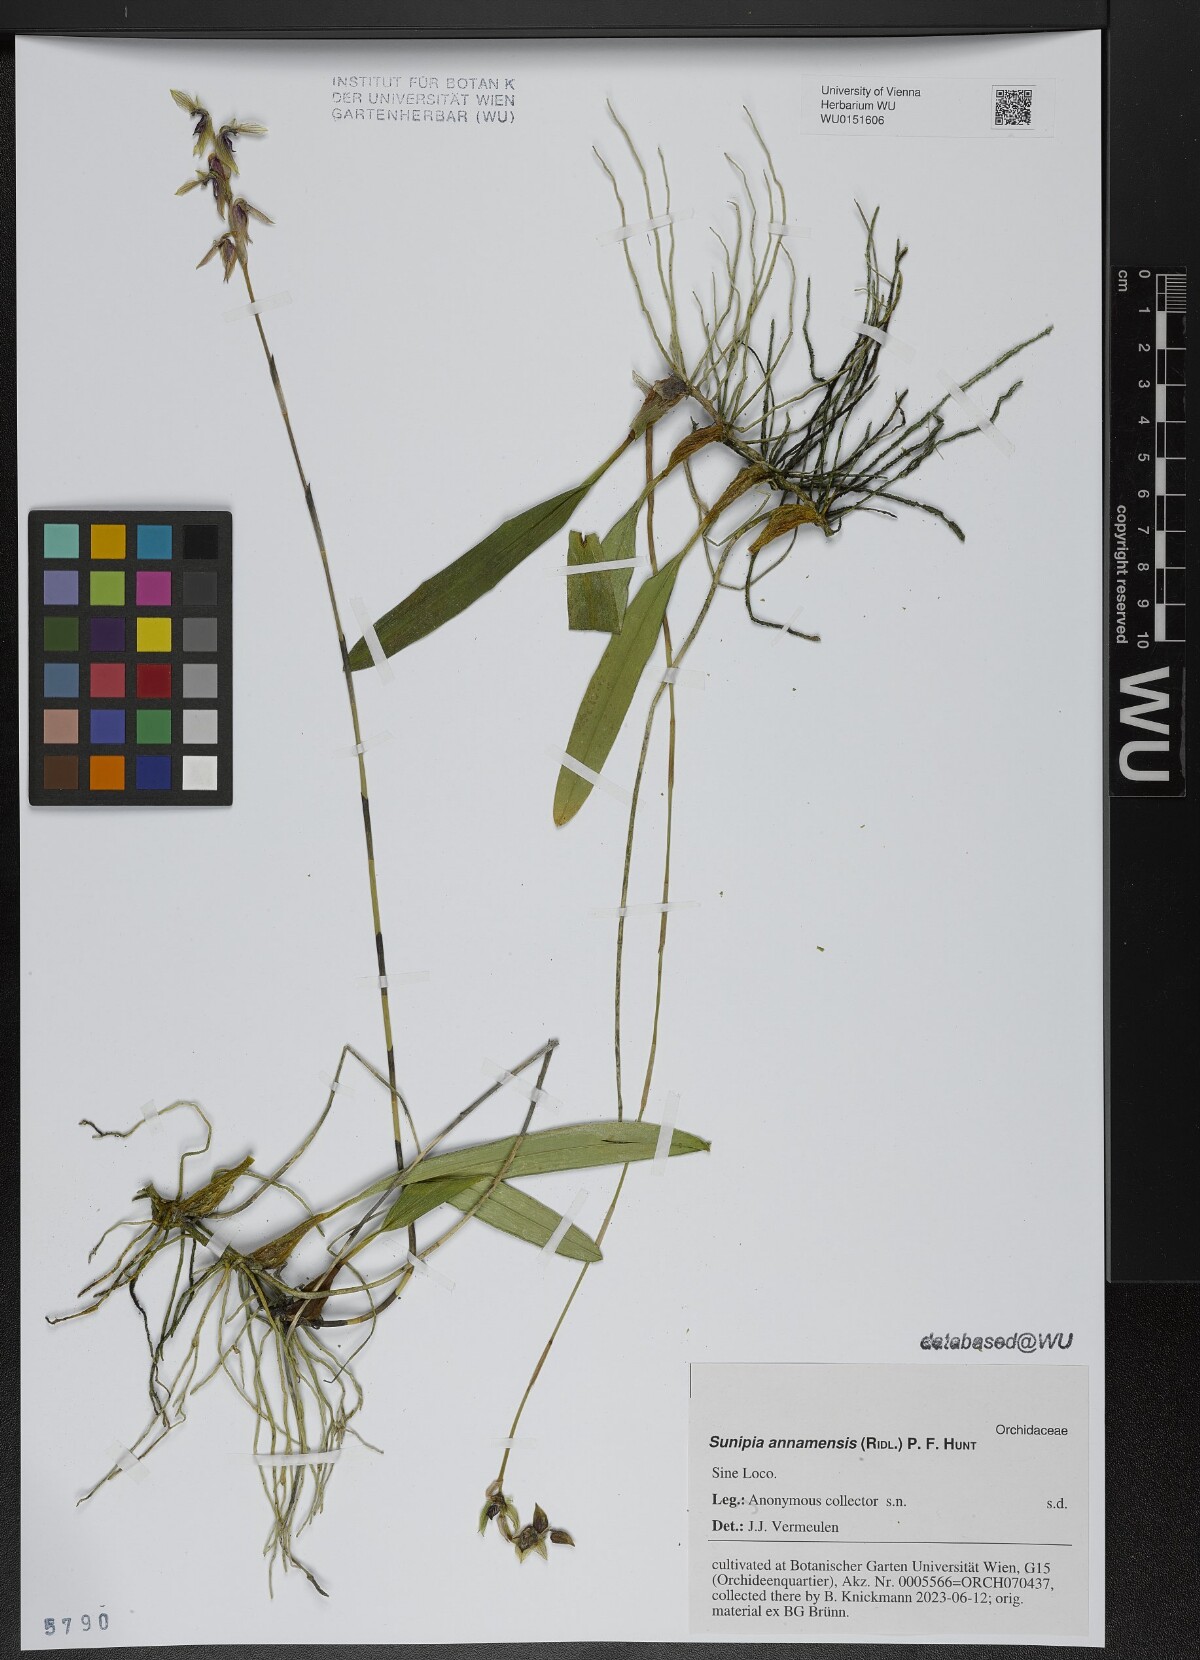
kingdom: Plantae
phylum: Tracheophyta
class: Liliopsida
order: Asparagales
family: Orchidaceae
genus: Bulbophyllum
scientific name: Bulbophyllum medioximum
